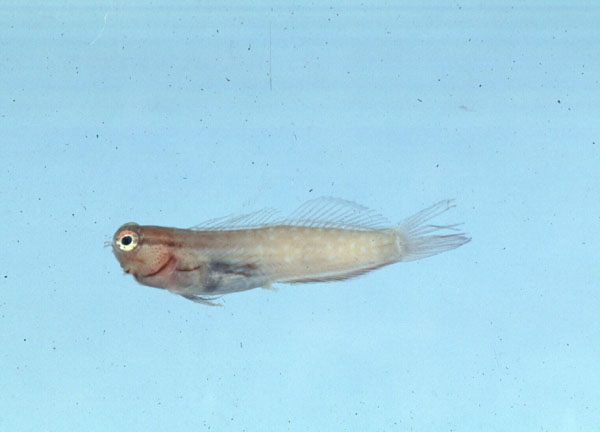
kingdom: Animalia
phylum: Chordata
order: Perciformes
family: Blenniidae
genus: Ecsenius
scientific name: Ecsenius nalolo
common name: Nalolo
